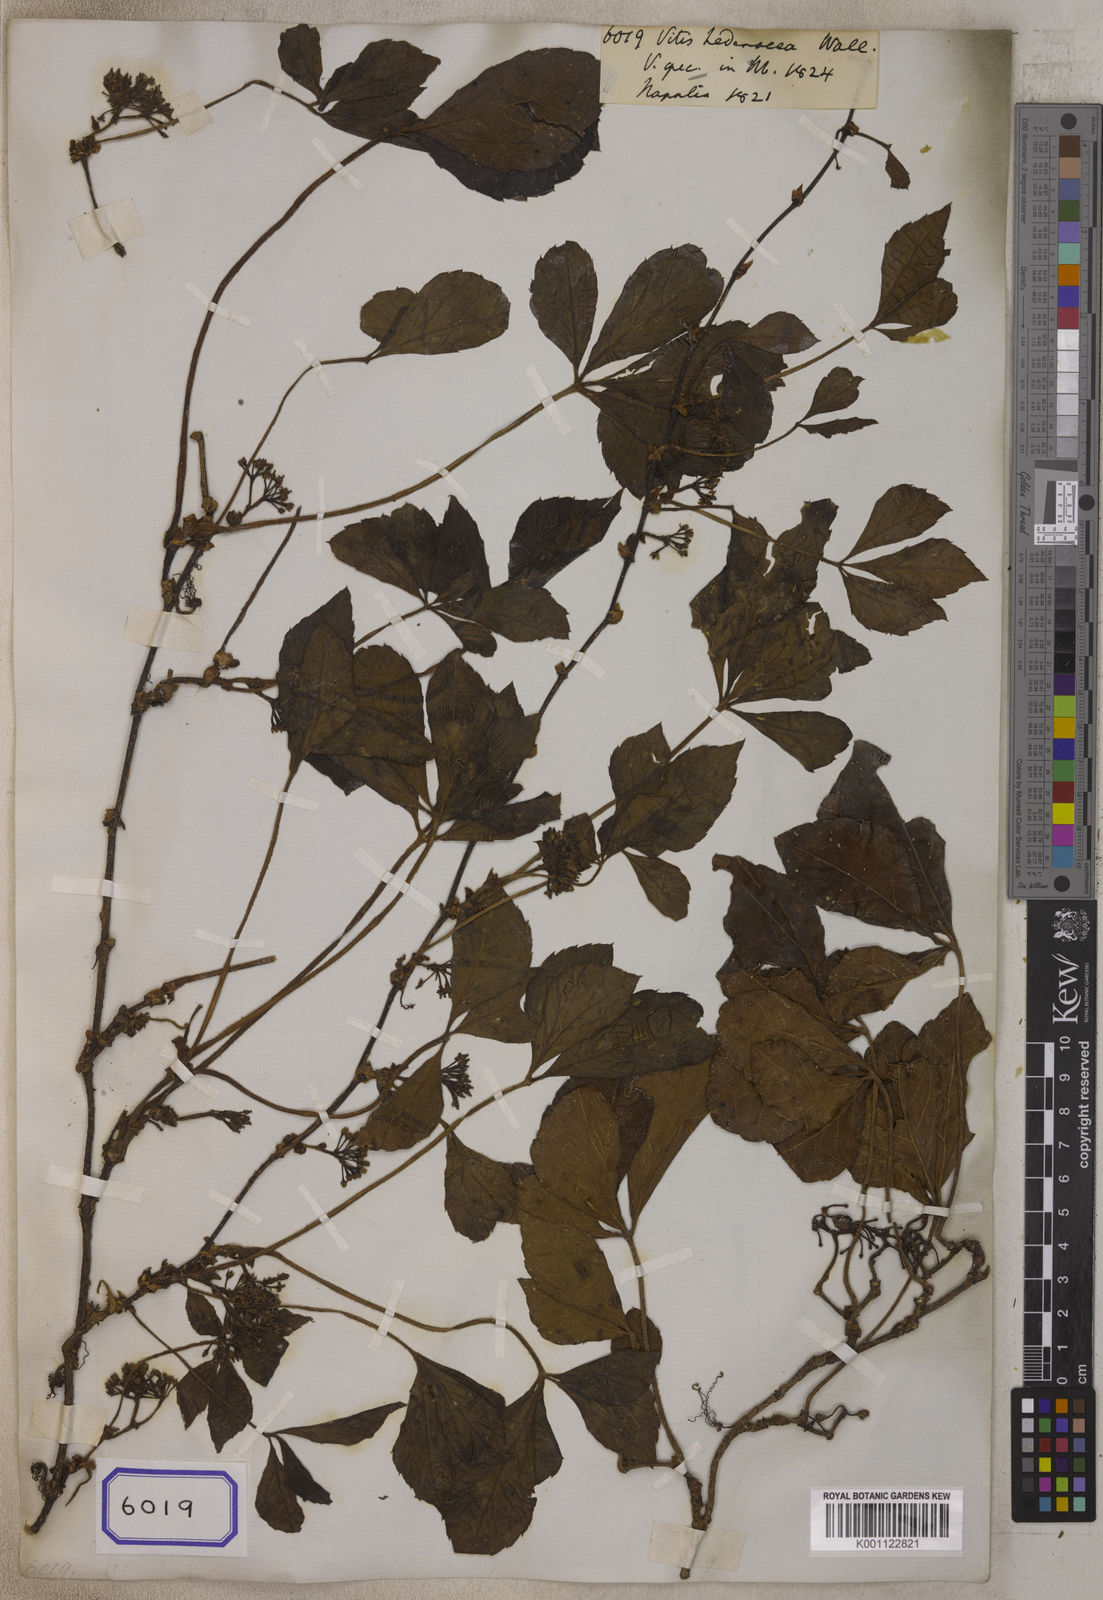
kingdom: Plantae
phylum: Tracheophyta
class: Magnoliopsida
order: Vitales
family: Vitaceae
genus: Tetrastigma
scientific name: Tetrastigma obtectum
